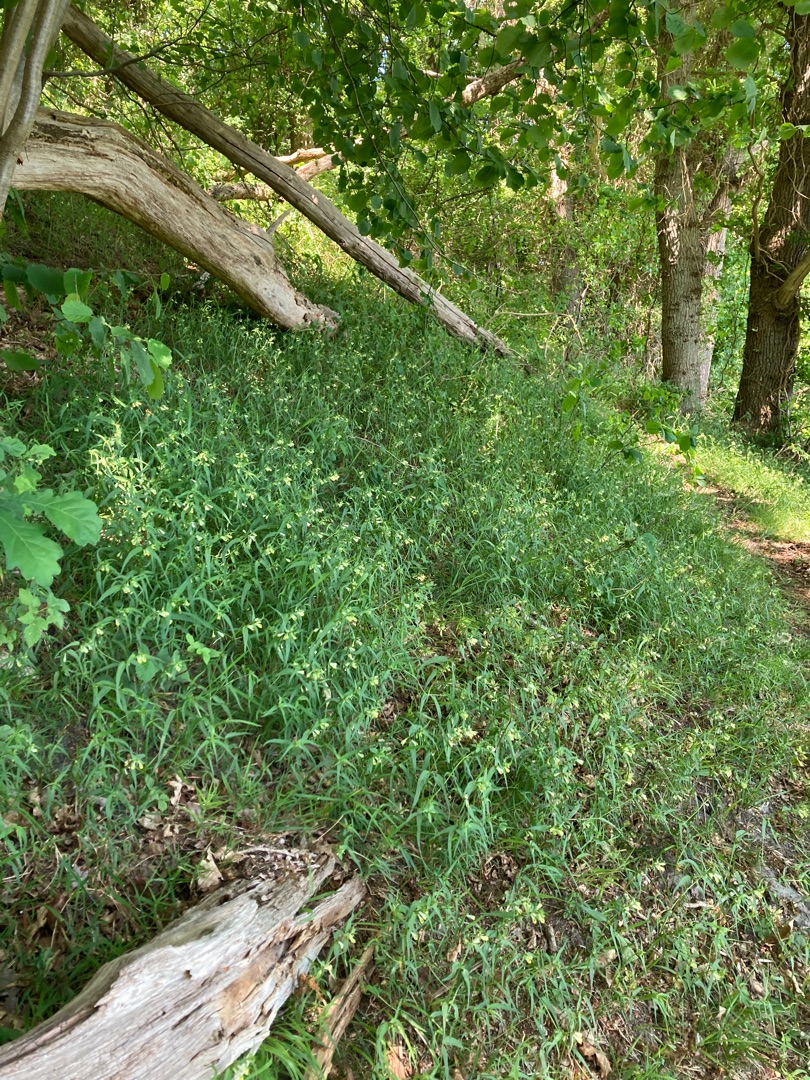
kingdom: Plantae
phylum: Tracheophyta
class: Magnoliopsida
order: Lamiales
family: Orobanchaceae
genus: Melampyrum
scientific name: Melampyrum pratense
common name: Almindelig kohvede
